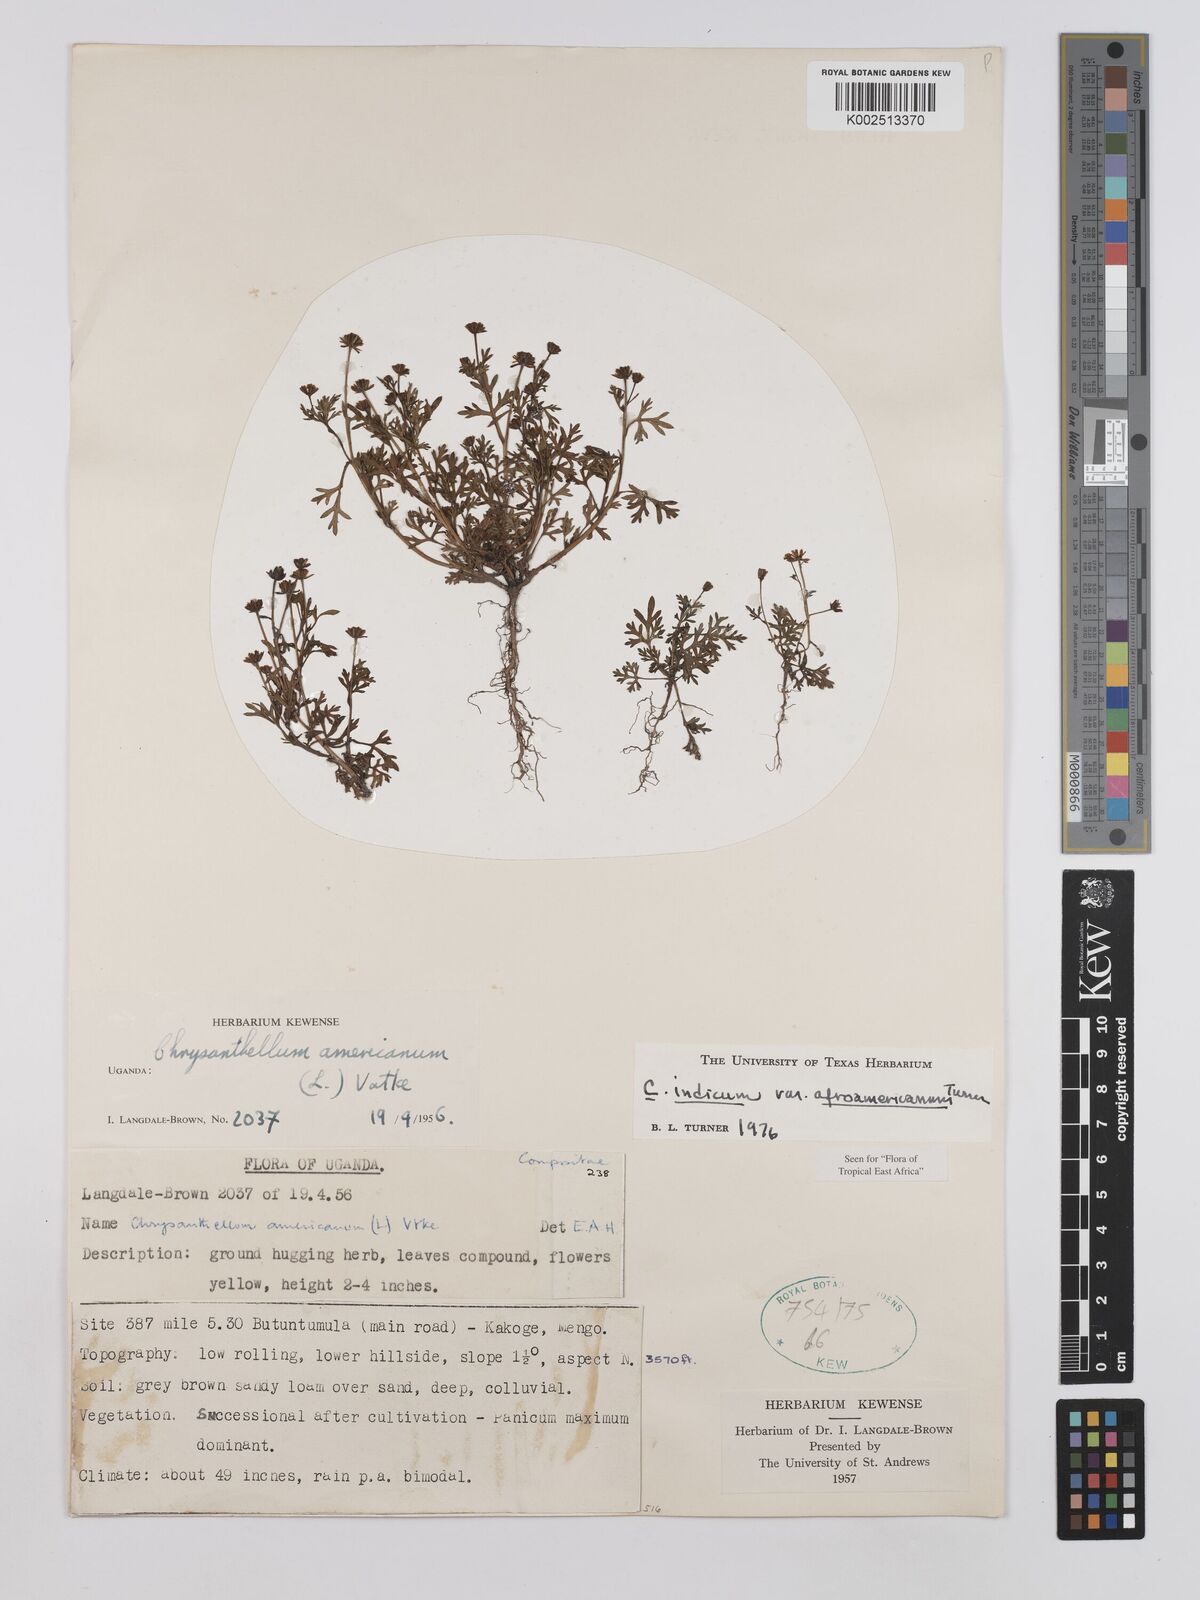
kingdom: Plantae
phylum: Tracheophyta
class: Magnoliopsida
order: Asterales
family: Asteraceae
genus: Chrysanthellum
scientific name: Chrysanthellum indicum
